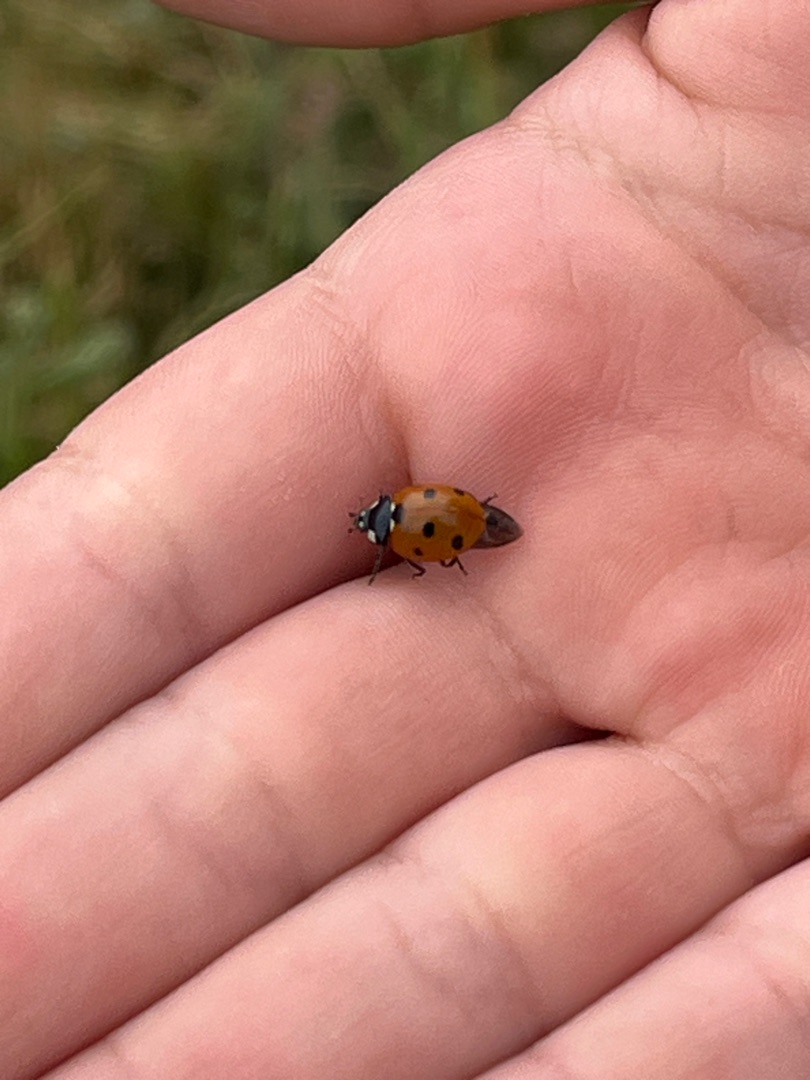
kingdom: Animalia
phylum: Arthropoda
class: Insecta
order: Coleoptera
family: Coccinellidae
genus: Coccinella
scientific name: Coccinella septempunctata
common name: Syvplettet mariehøne
